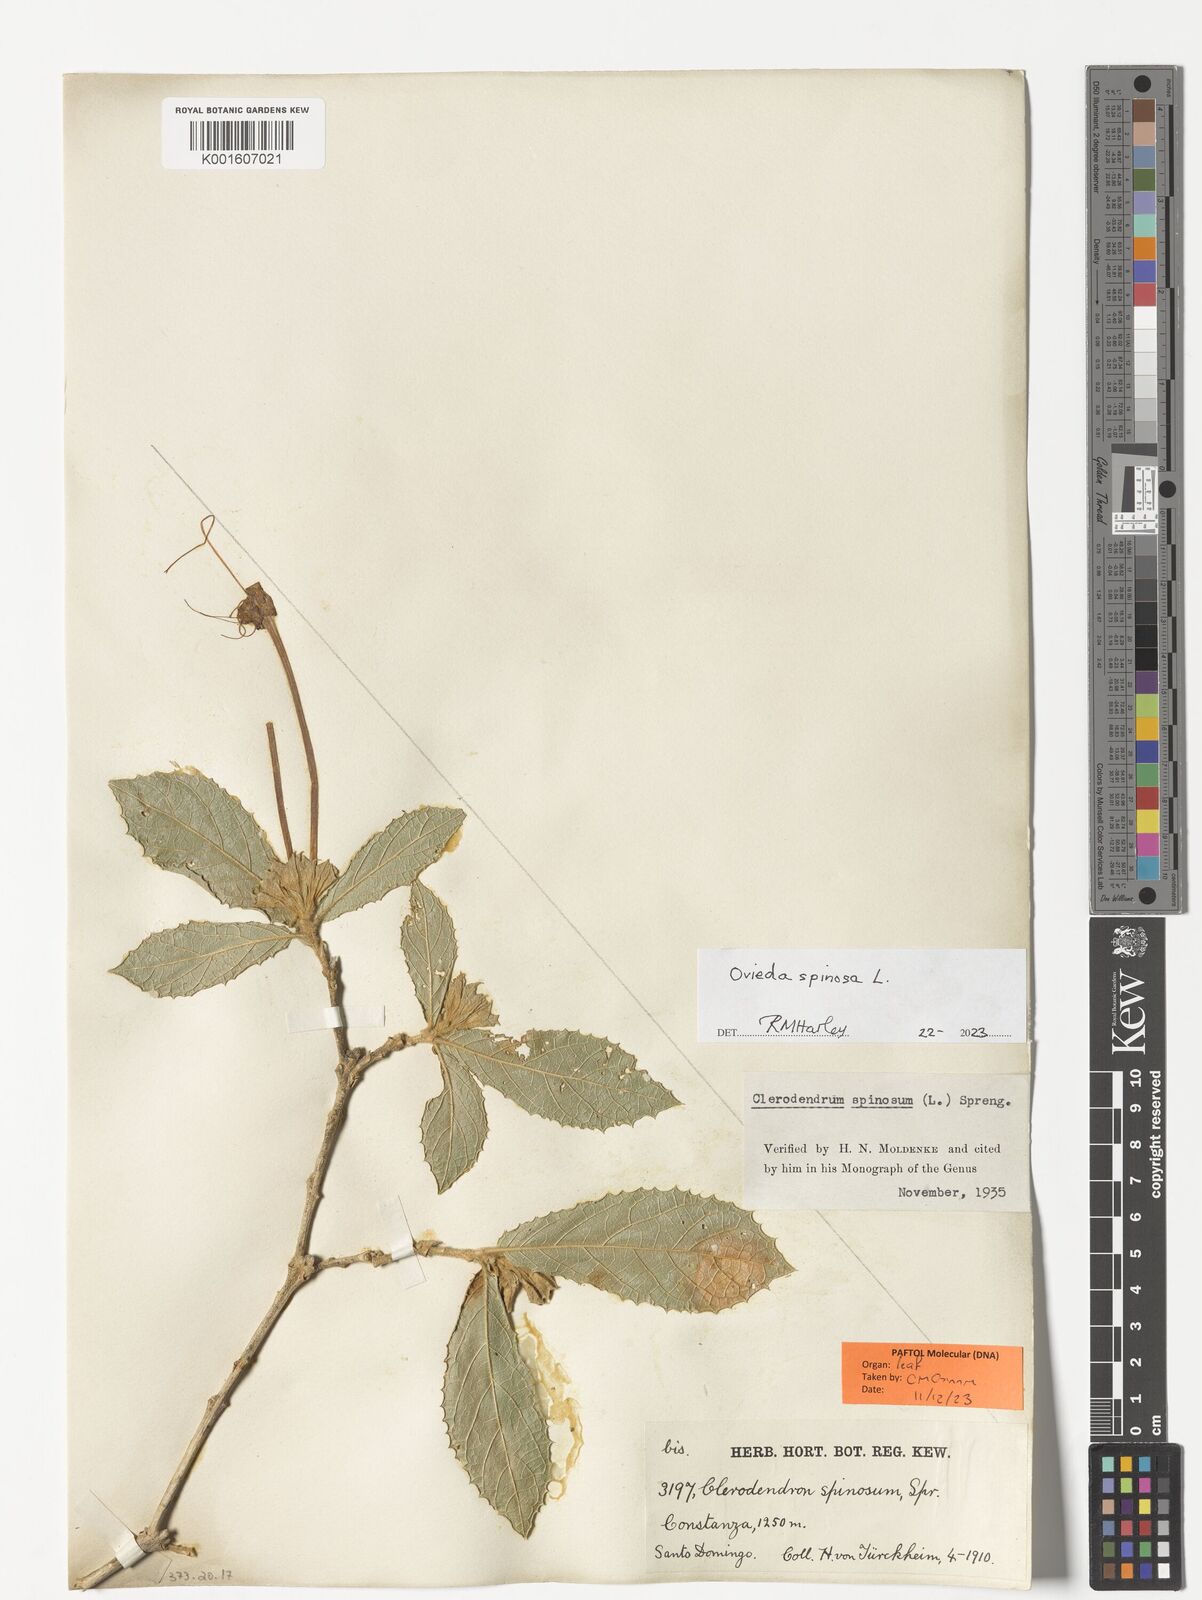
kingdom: Plantae
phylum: Tracheophyta
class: Magnoliopsida
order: Lamiales
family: Lamiaceae
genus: Ovieda
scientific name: Ovieda spinosa
